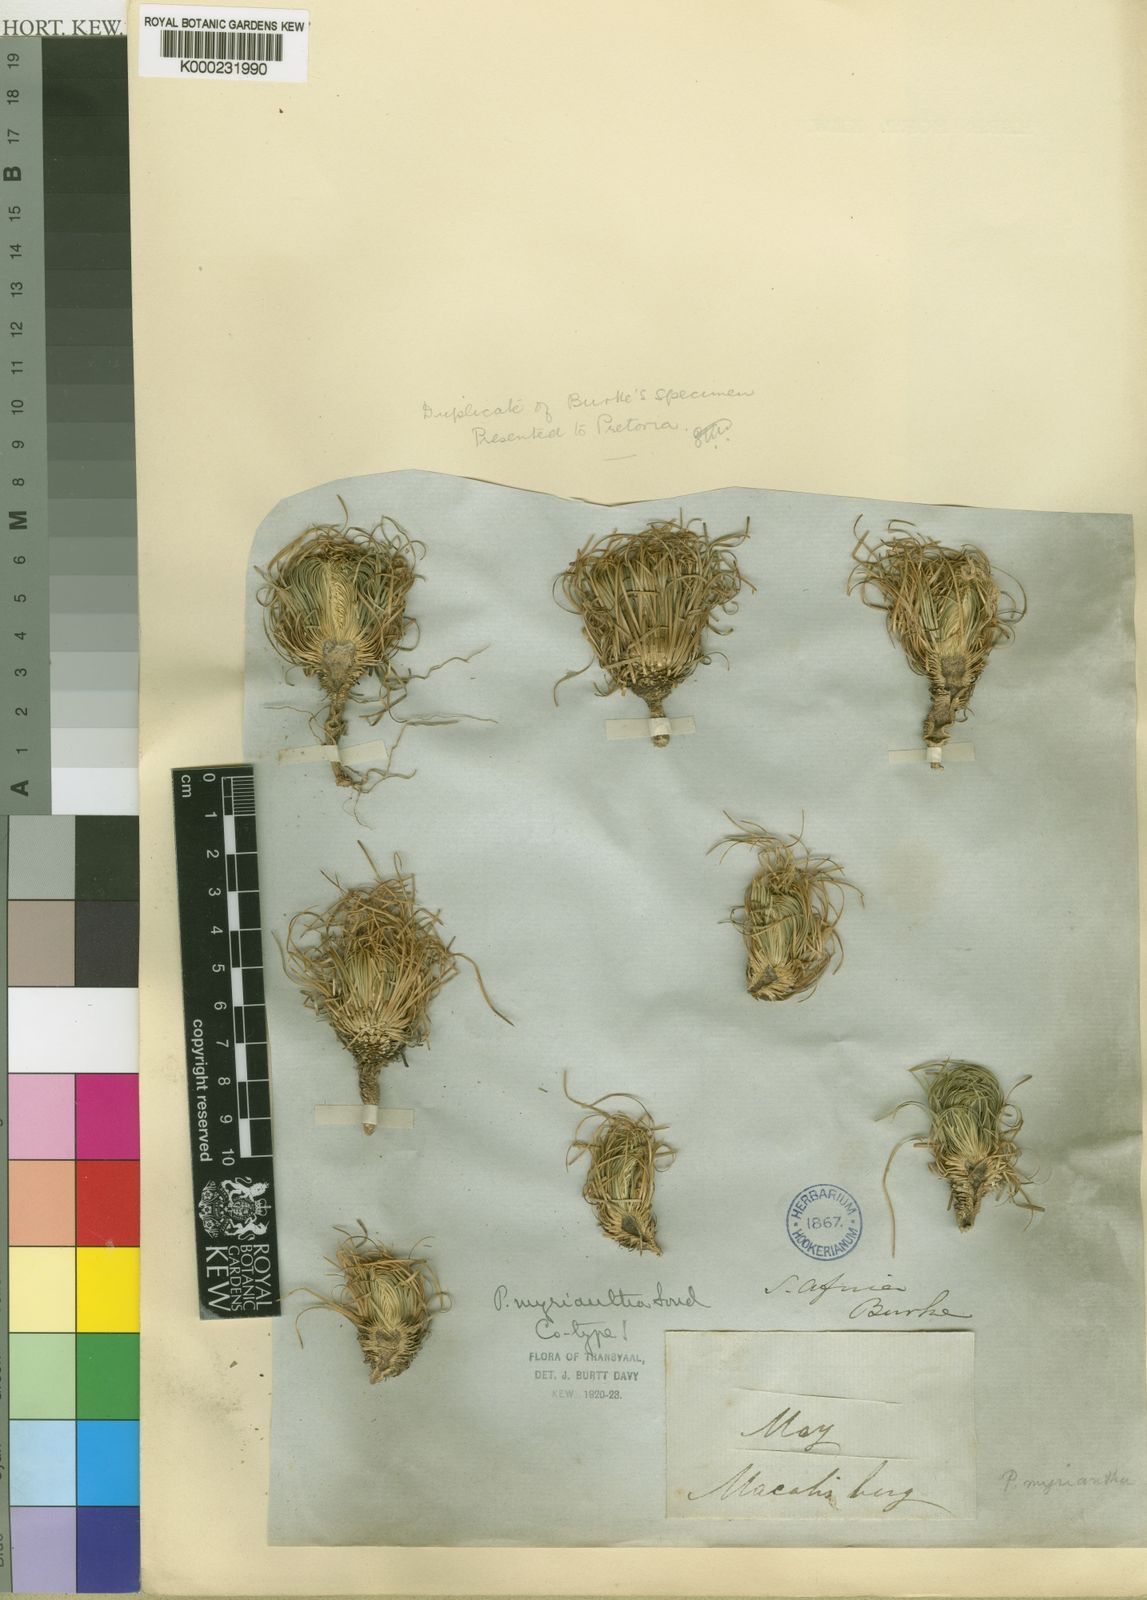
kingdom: Plantae
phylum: Tracheophyta
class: Magnoliopsida
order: Caryophyllales
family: Molluginaceae
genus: Psammotropha
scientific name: Psammotropha myriantha
